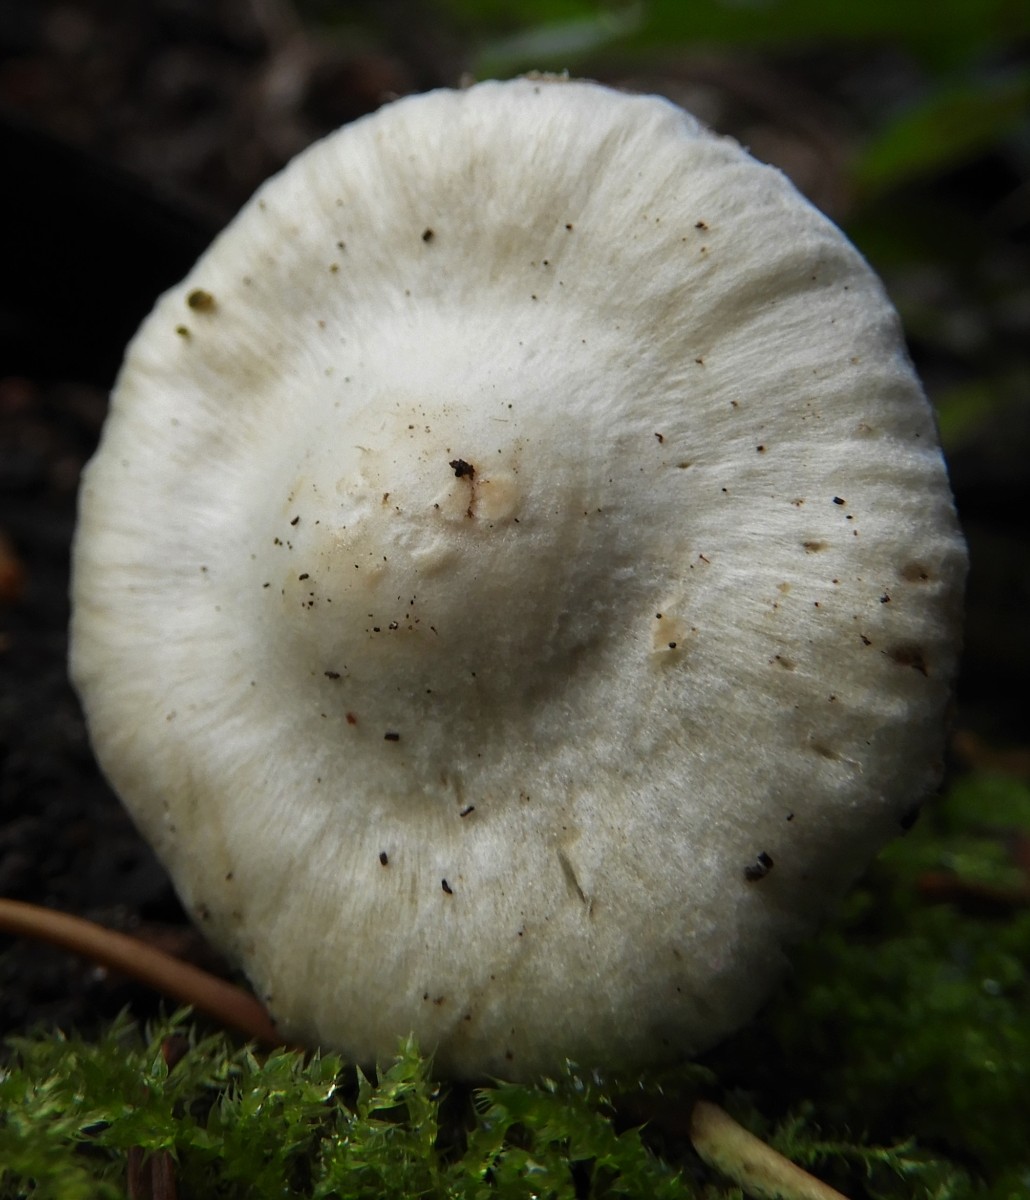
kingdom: Fungi
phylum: Basidiomycota
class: Agaricomycetes
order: Agaricales
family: Inocybaceae
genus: Inocybe
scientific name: Inocybe
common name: almindelig trævlhat
